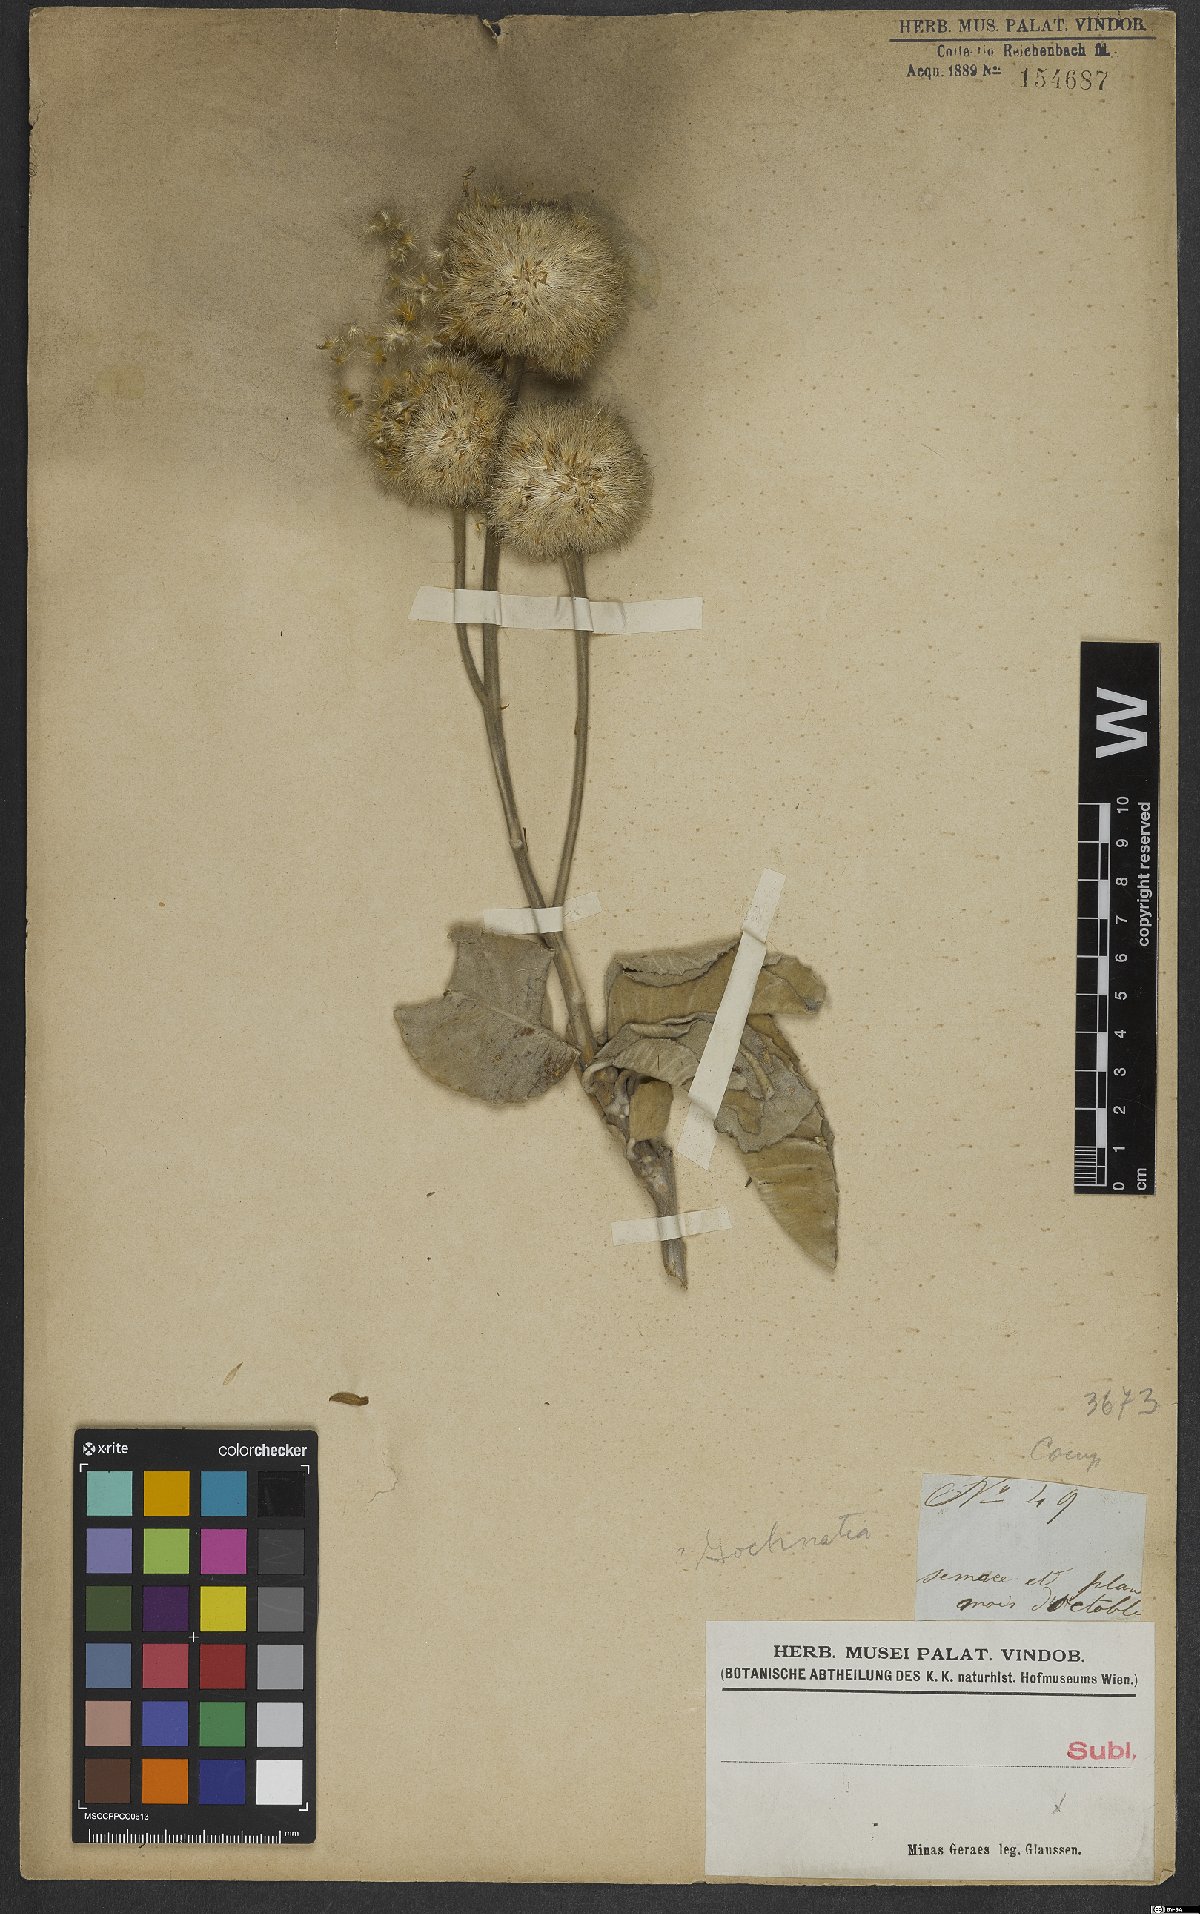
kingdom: Plantae
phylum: Tracheophyta
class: Magnoliopsida
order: Asterales
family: Asteraceae
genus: Gochnatia
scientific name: Gochnatia
